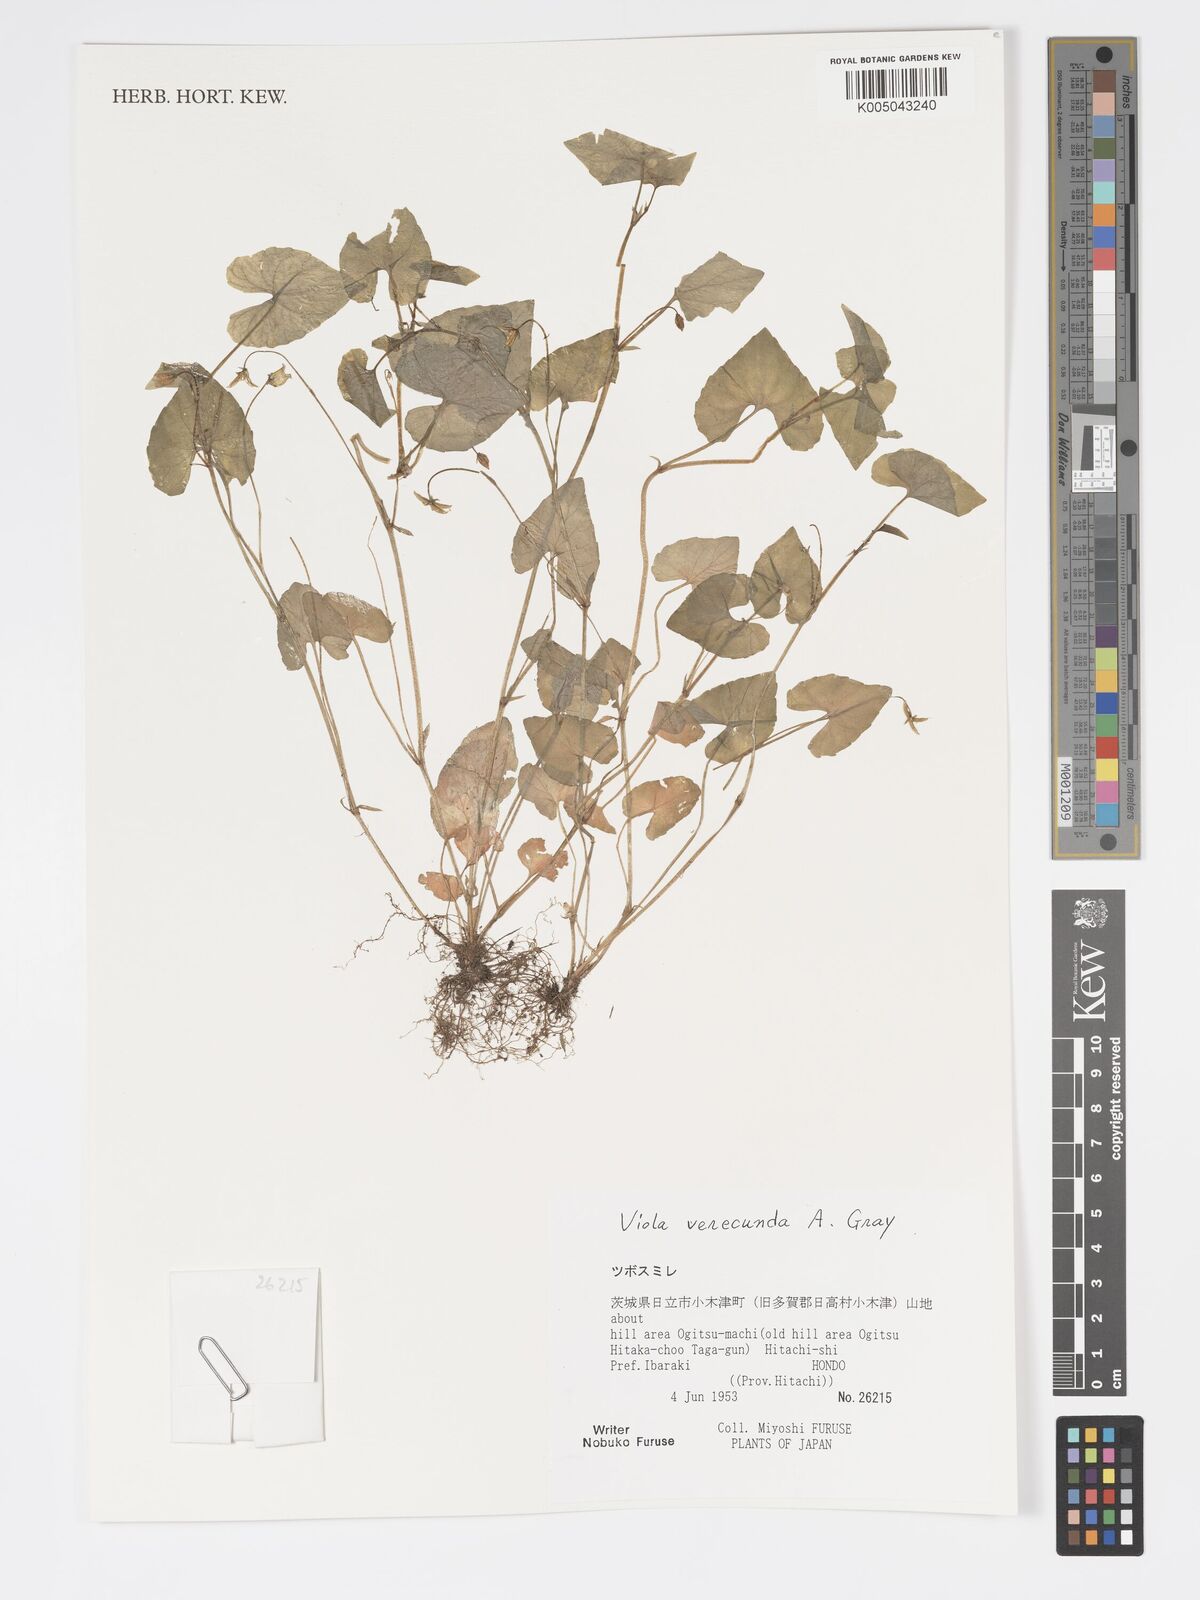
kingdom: Plantae
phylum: Tracheophyta
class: Magnoliopsida
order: Malpighiales
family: Violaceae
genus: Viola
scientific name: Viola hamiltoniana
